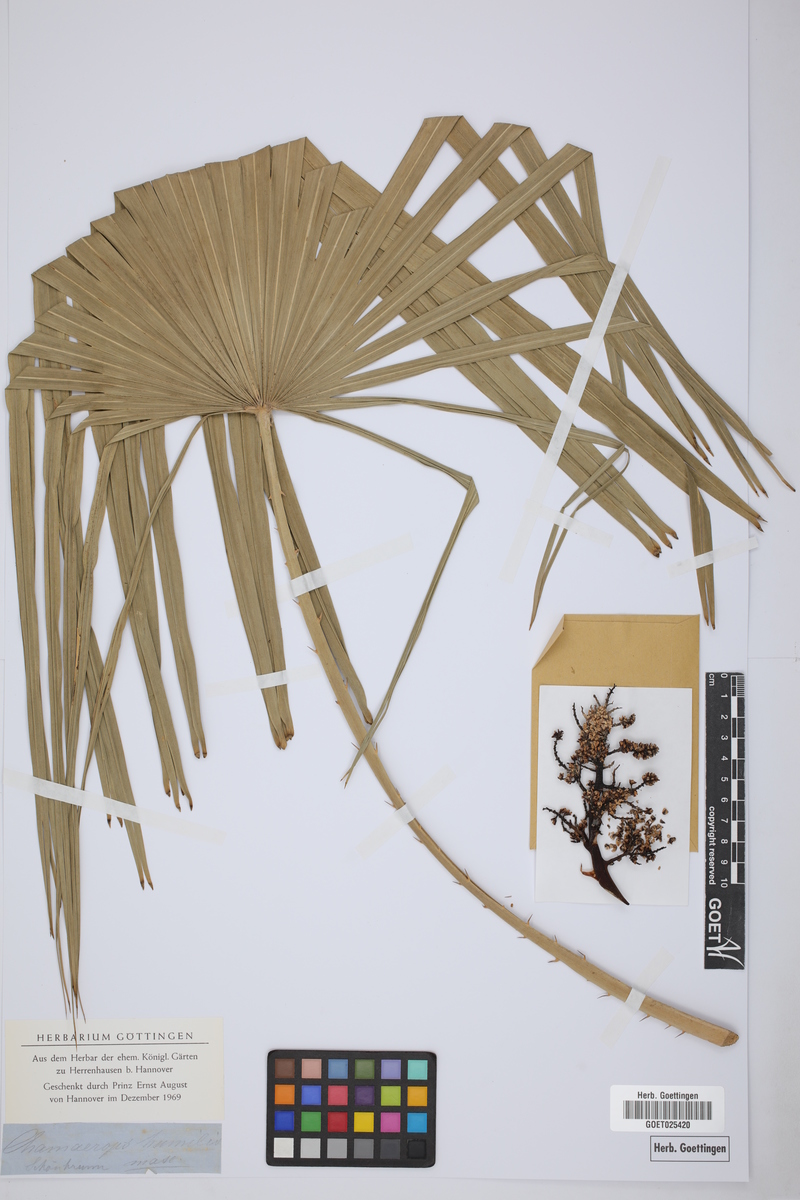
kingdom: Plantae
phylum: Tracheophyta
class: Liliopsida
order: Arecales
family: Arecaceae
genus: Chamaerops
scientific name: Chamaerops humilis
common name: Dwarf fan palm
